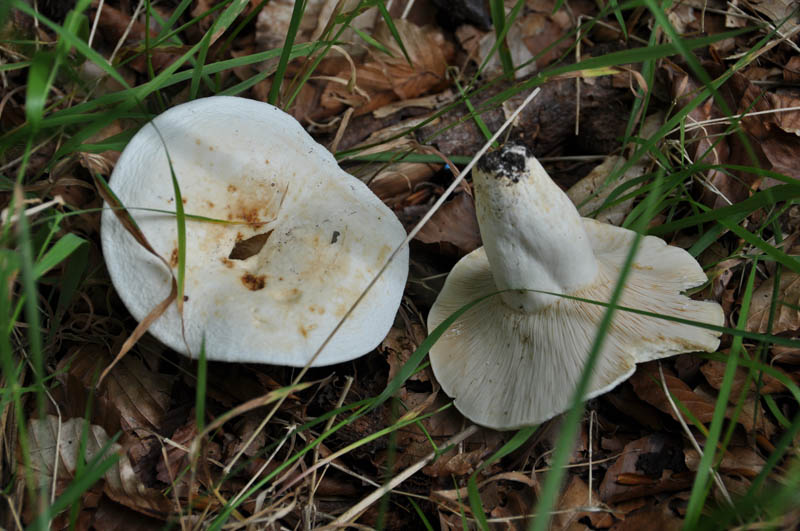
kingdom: Fungi
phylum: Basidiomycota
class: Agaricomycetes
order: Russulales
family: Russulaceae
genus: Lactifluus
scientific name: Lactifluus vellereus
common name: hvidfiltet mælkehat
